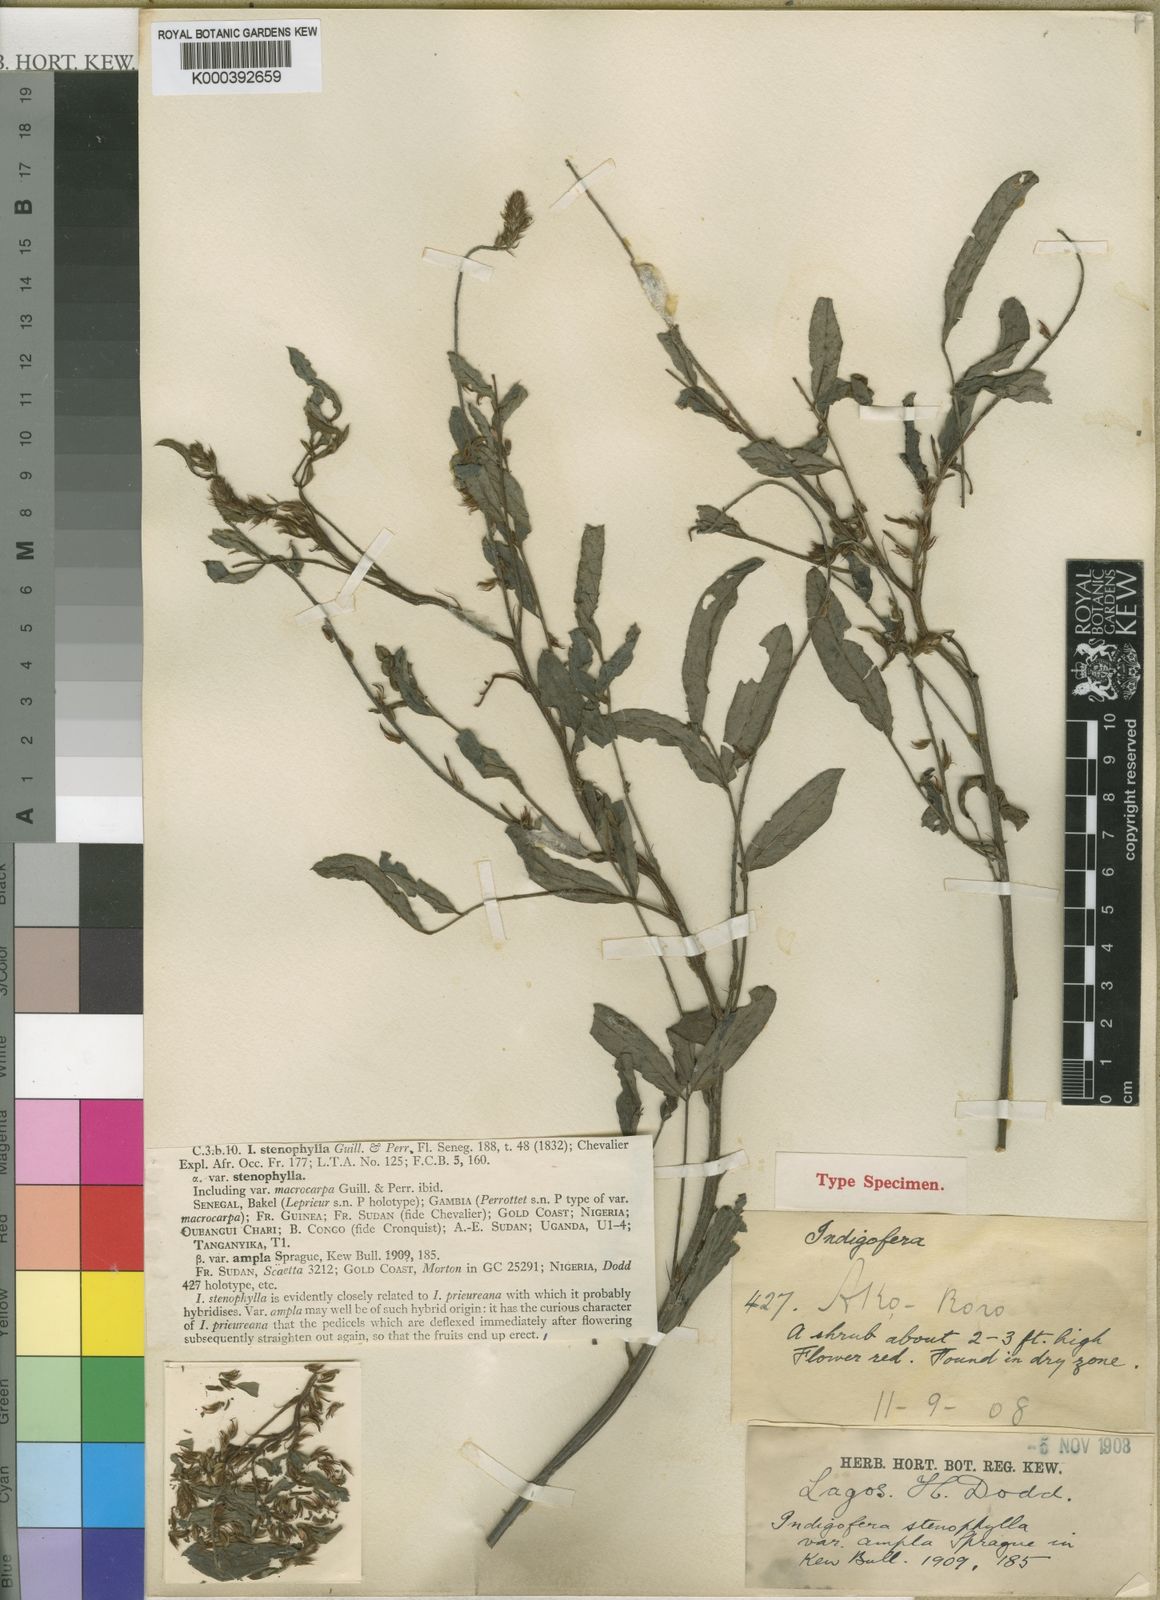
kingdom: Plantae
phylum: Tracheophyta
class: Magnoliopsida
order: Fabales
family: Fabaceae
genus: Indigofera
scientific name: Indigofera stenophylla
